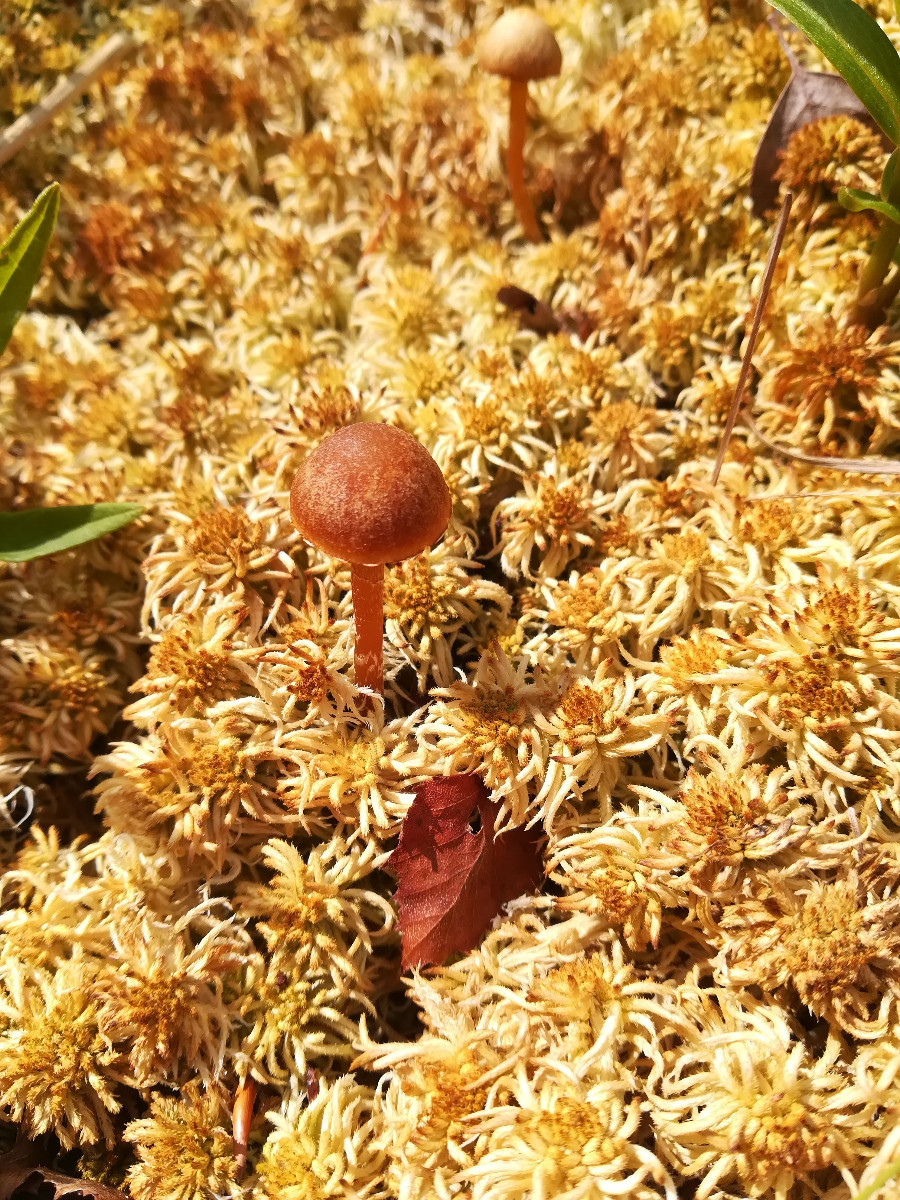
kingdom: Fungi
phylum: Basidiomycota
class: Agaricomycetes
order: Agaricales
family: Hymenogastraceae
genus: Galerina
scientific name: Galerina paludosa
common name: mose-hjelmhat
